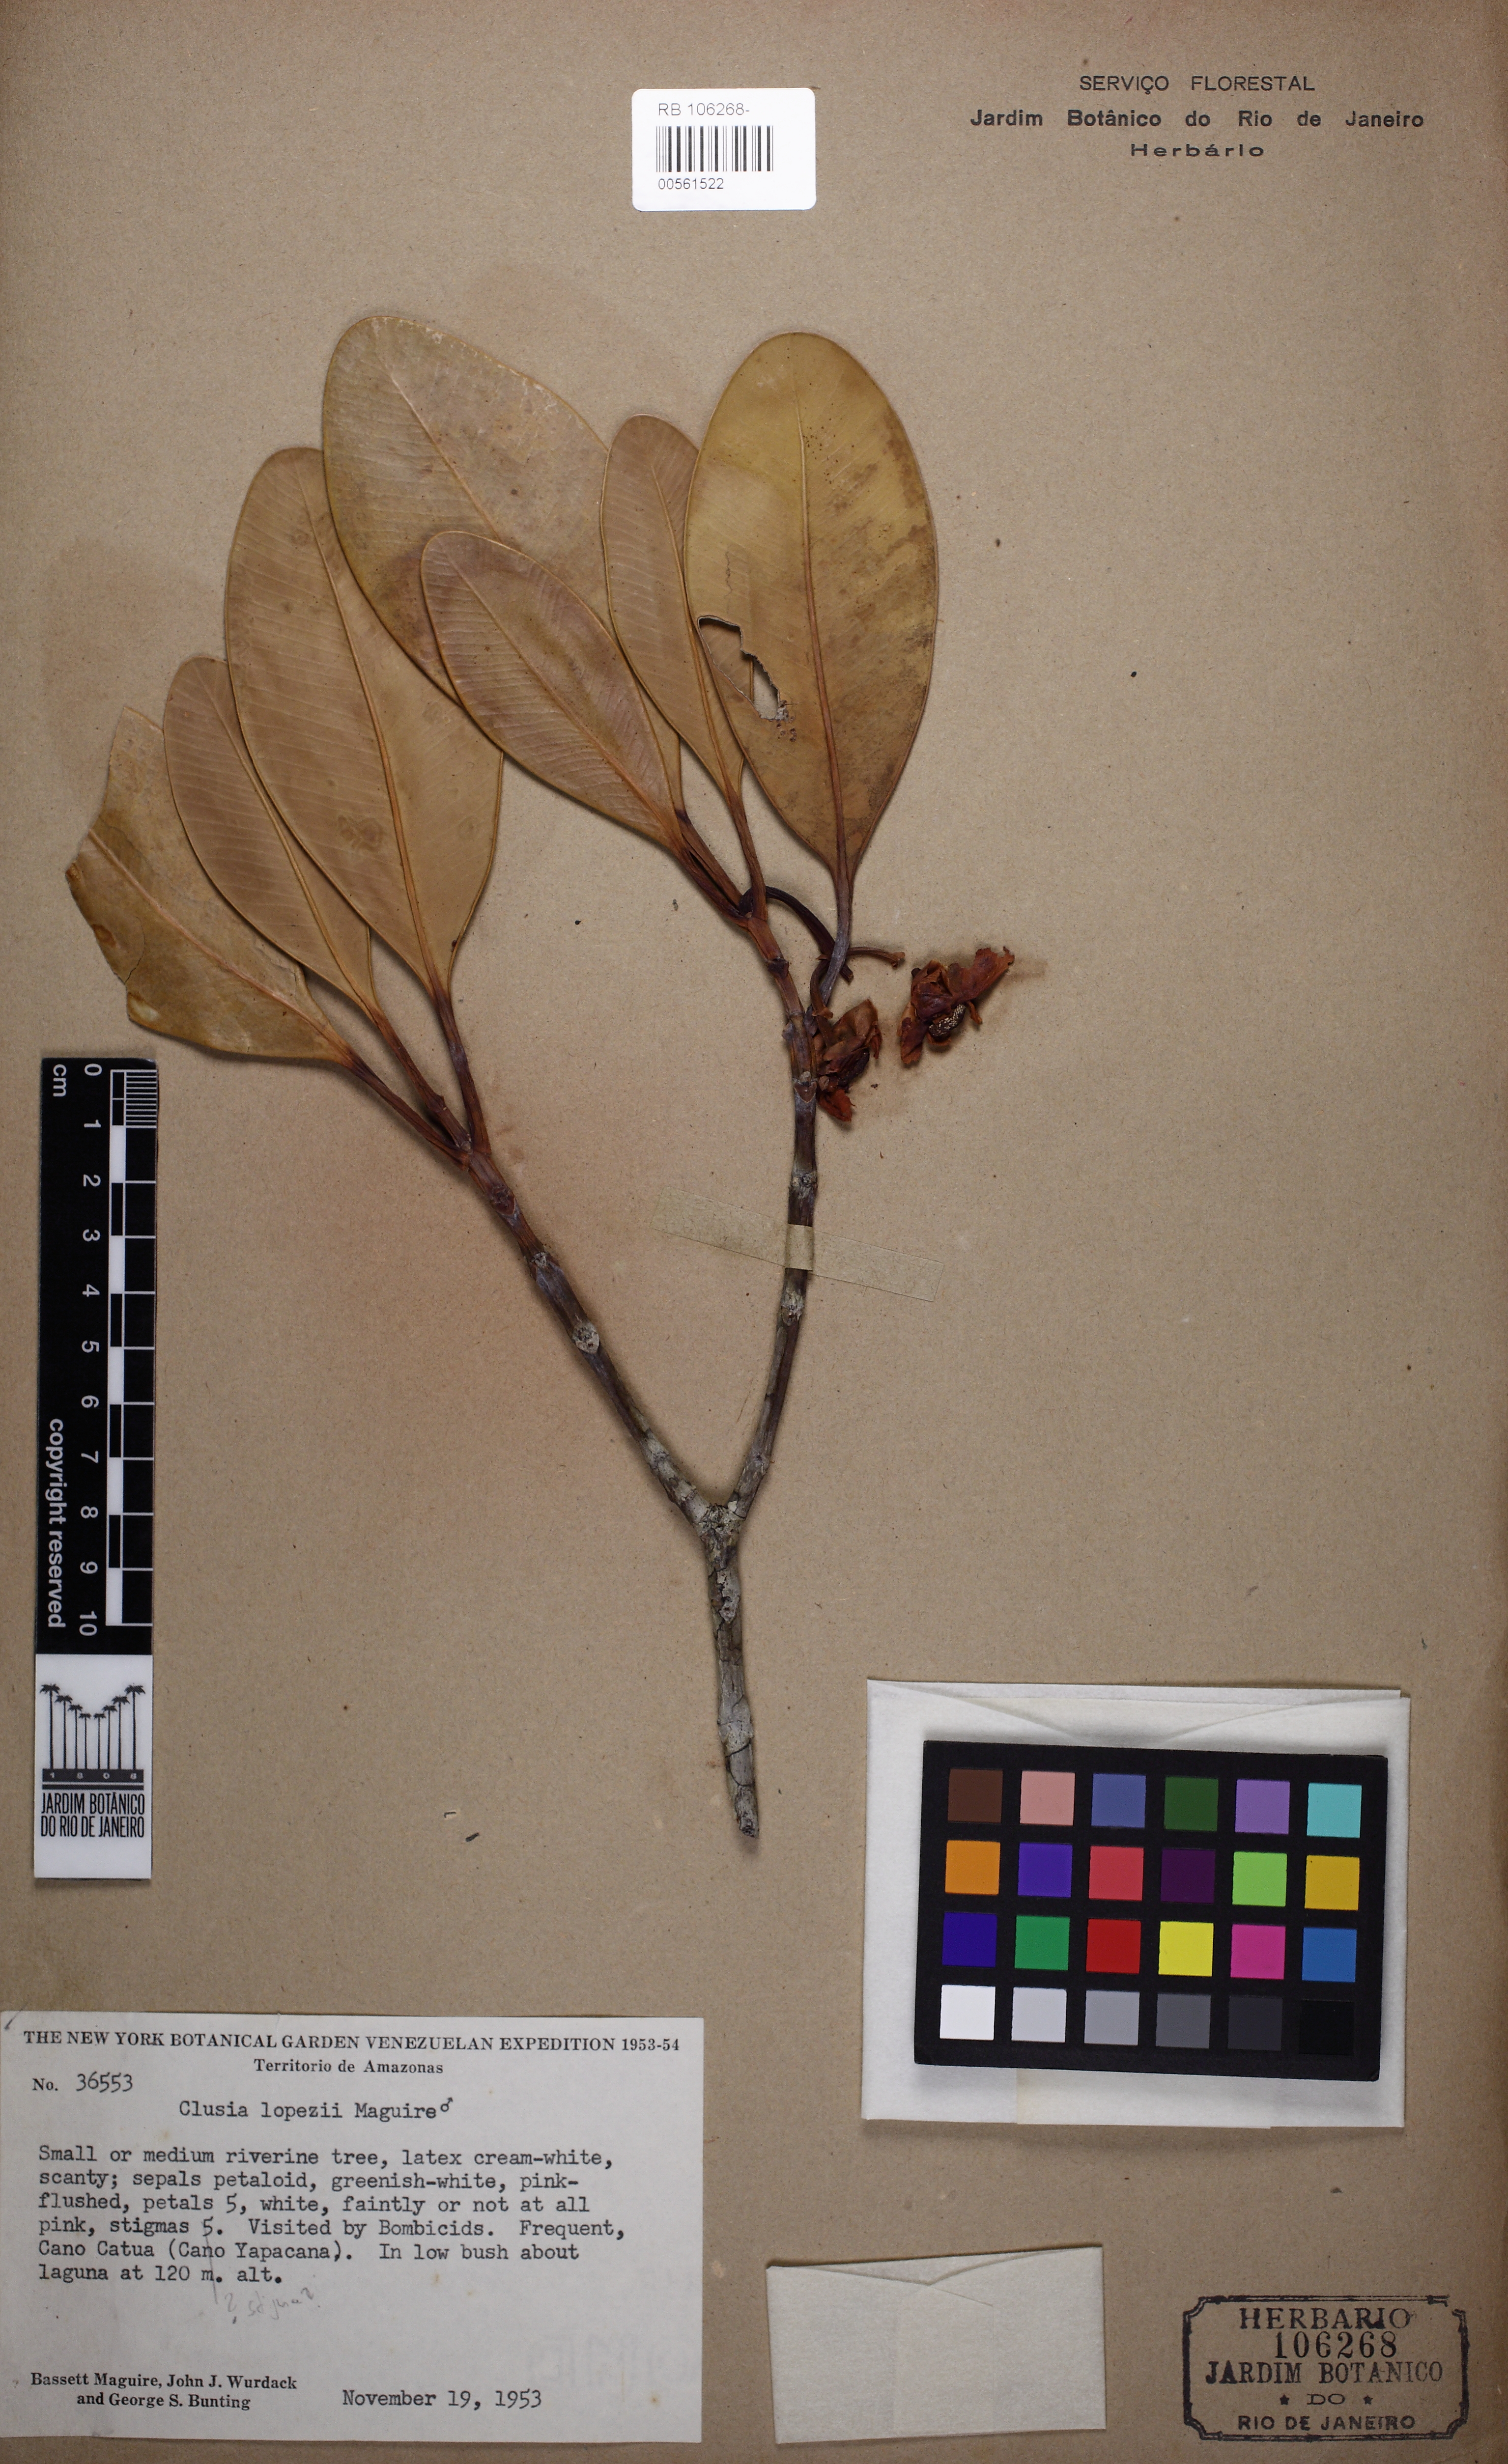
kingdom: Plantae
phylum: Tracheophyta
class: Magnoliopsida
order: Malpighiales
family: Clusiaceae
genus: Clusia
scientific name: Clusia lopezii
